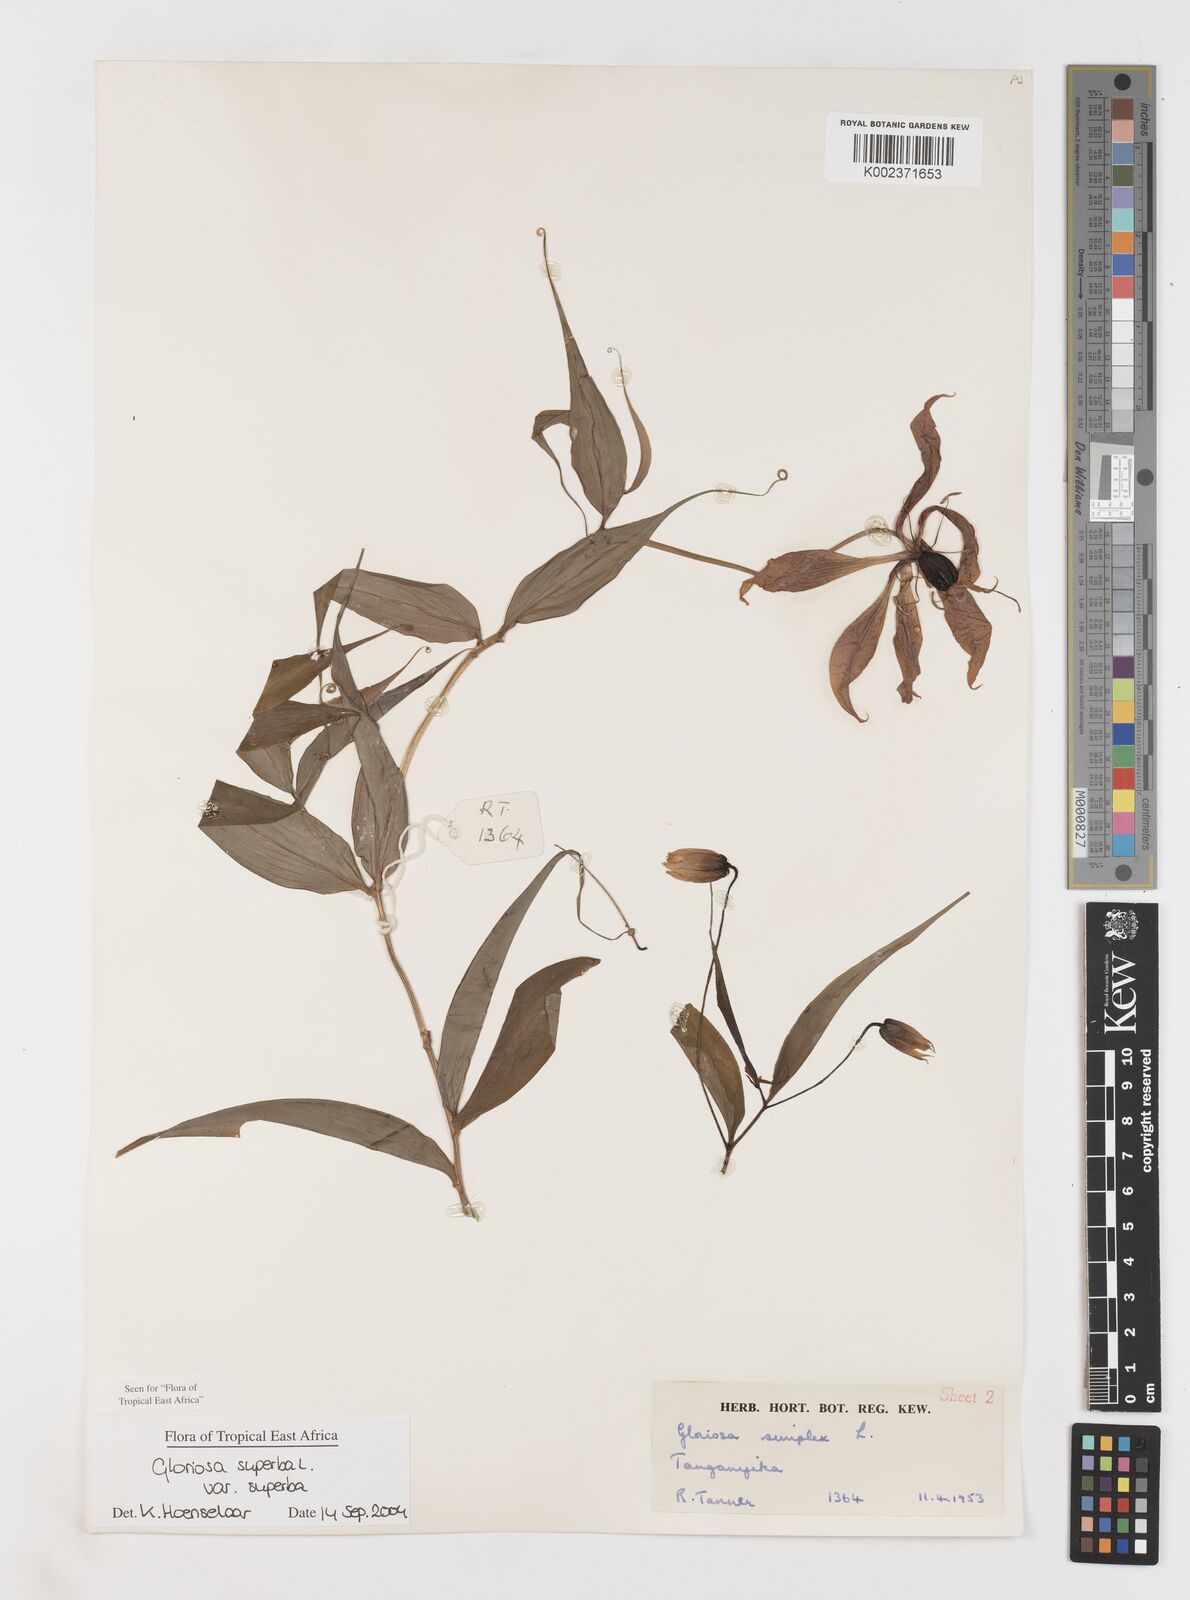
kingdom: Plantae
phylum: Tracheophyta
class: Liliopsida
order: Liliales
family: Colchicaceae
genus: Gloriosa
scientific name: Gloriosa simplex
